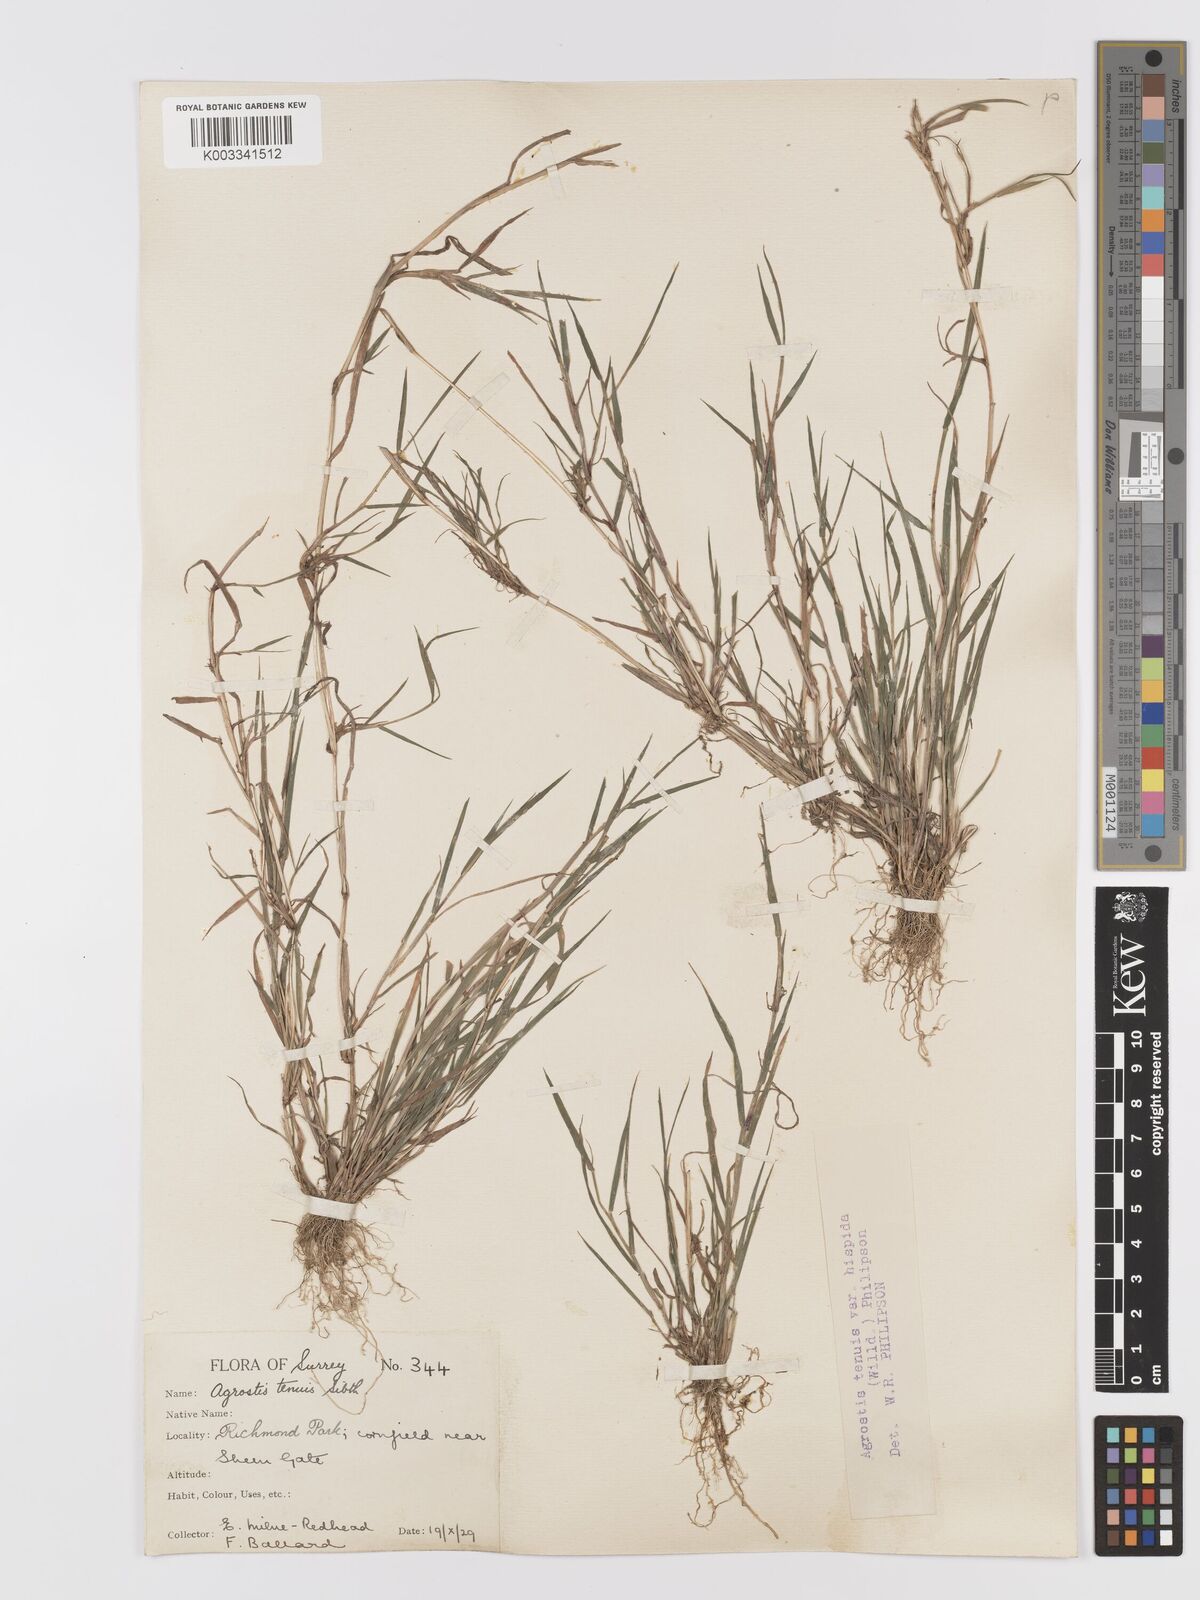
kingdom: Plantae
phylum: Tracheophyta
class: Liliopsida
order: Poales
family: Poaceae
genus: Agrostis
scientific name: Agrostis stolonifera
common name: Creeping bentgrass
